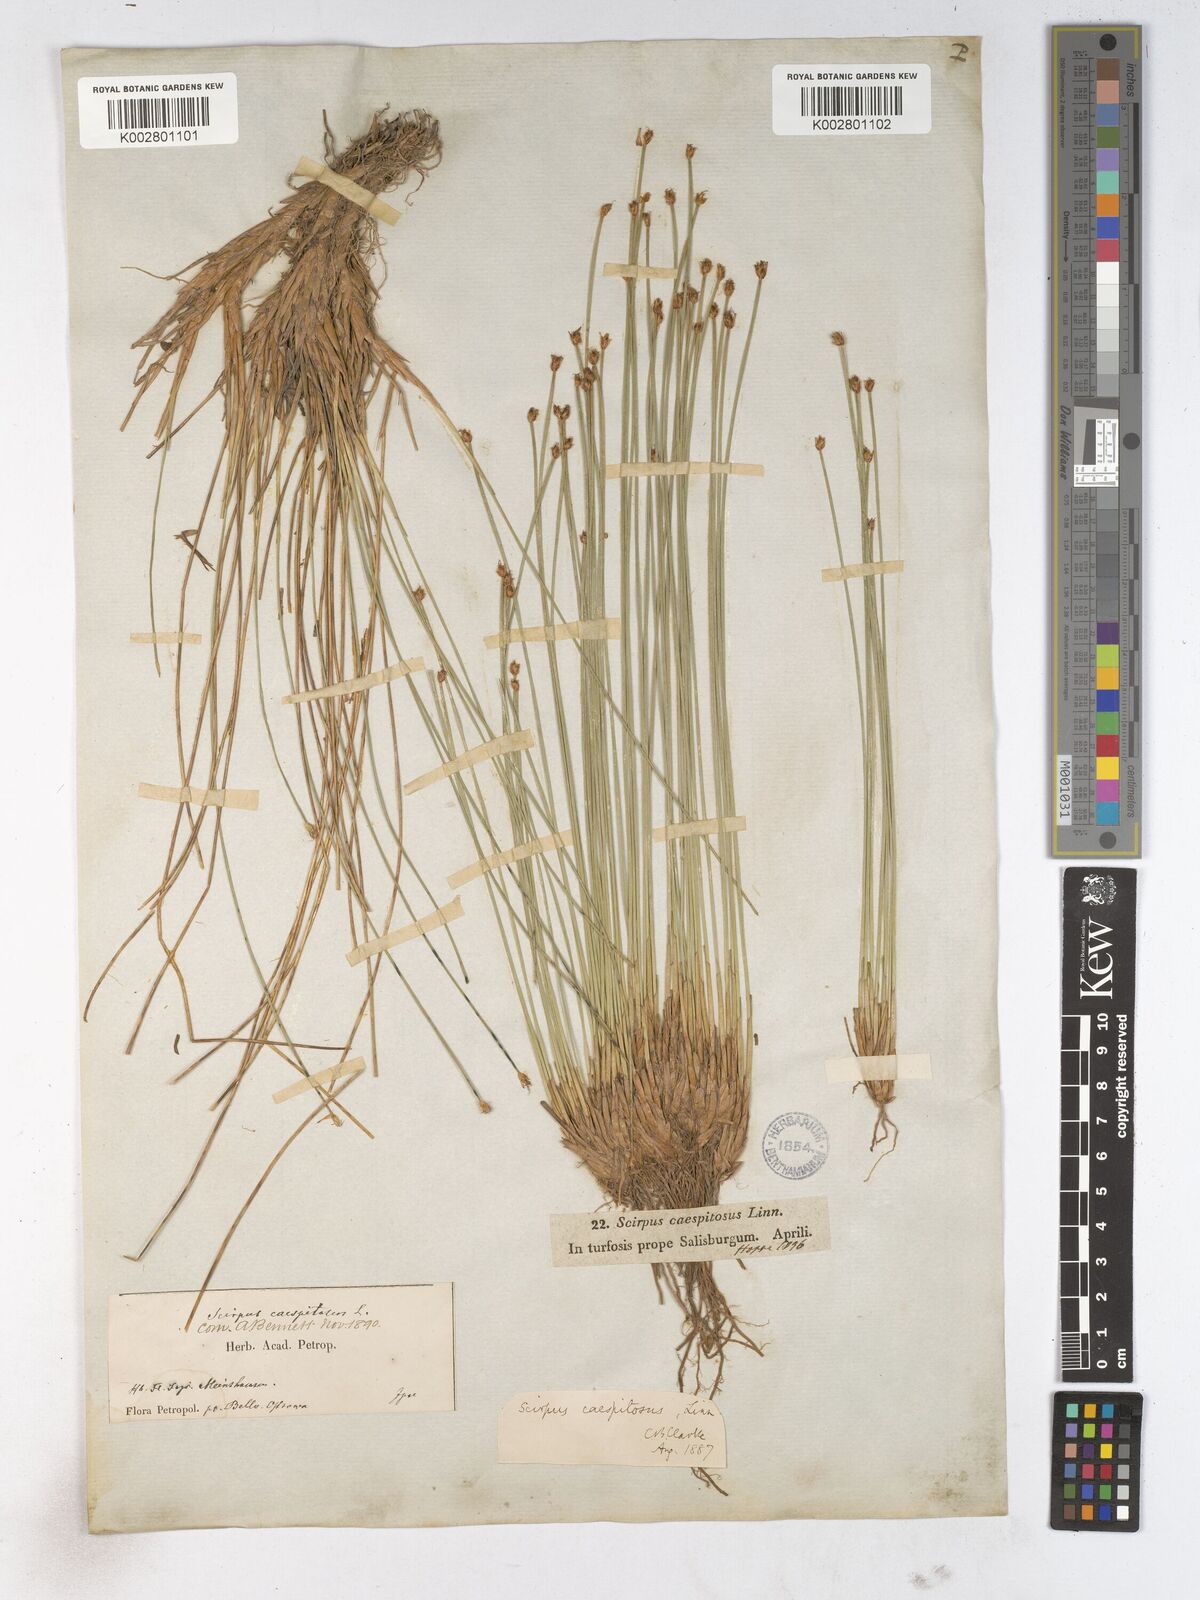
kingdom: Plantae
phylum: Tracheophyta
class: Liliopsida
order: Poales
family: Cyperaceae
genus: Trichophorum
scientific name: Trichophorum cespitosum
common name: Cespitose bulrush
